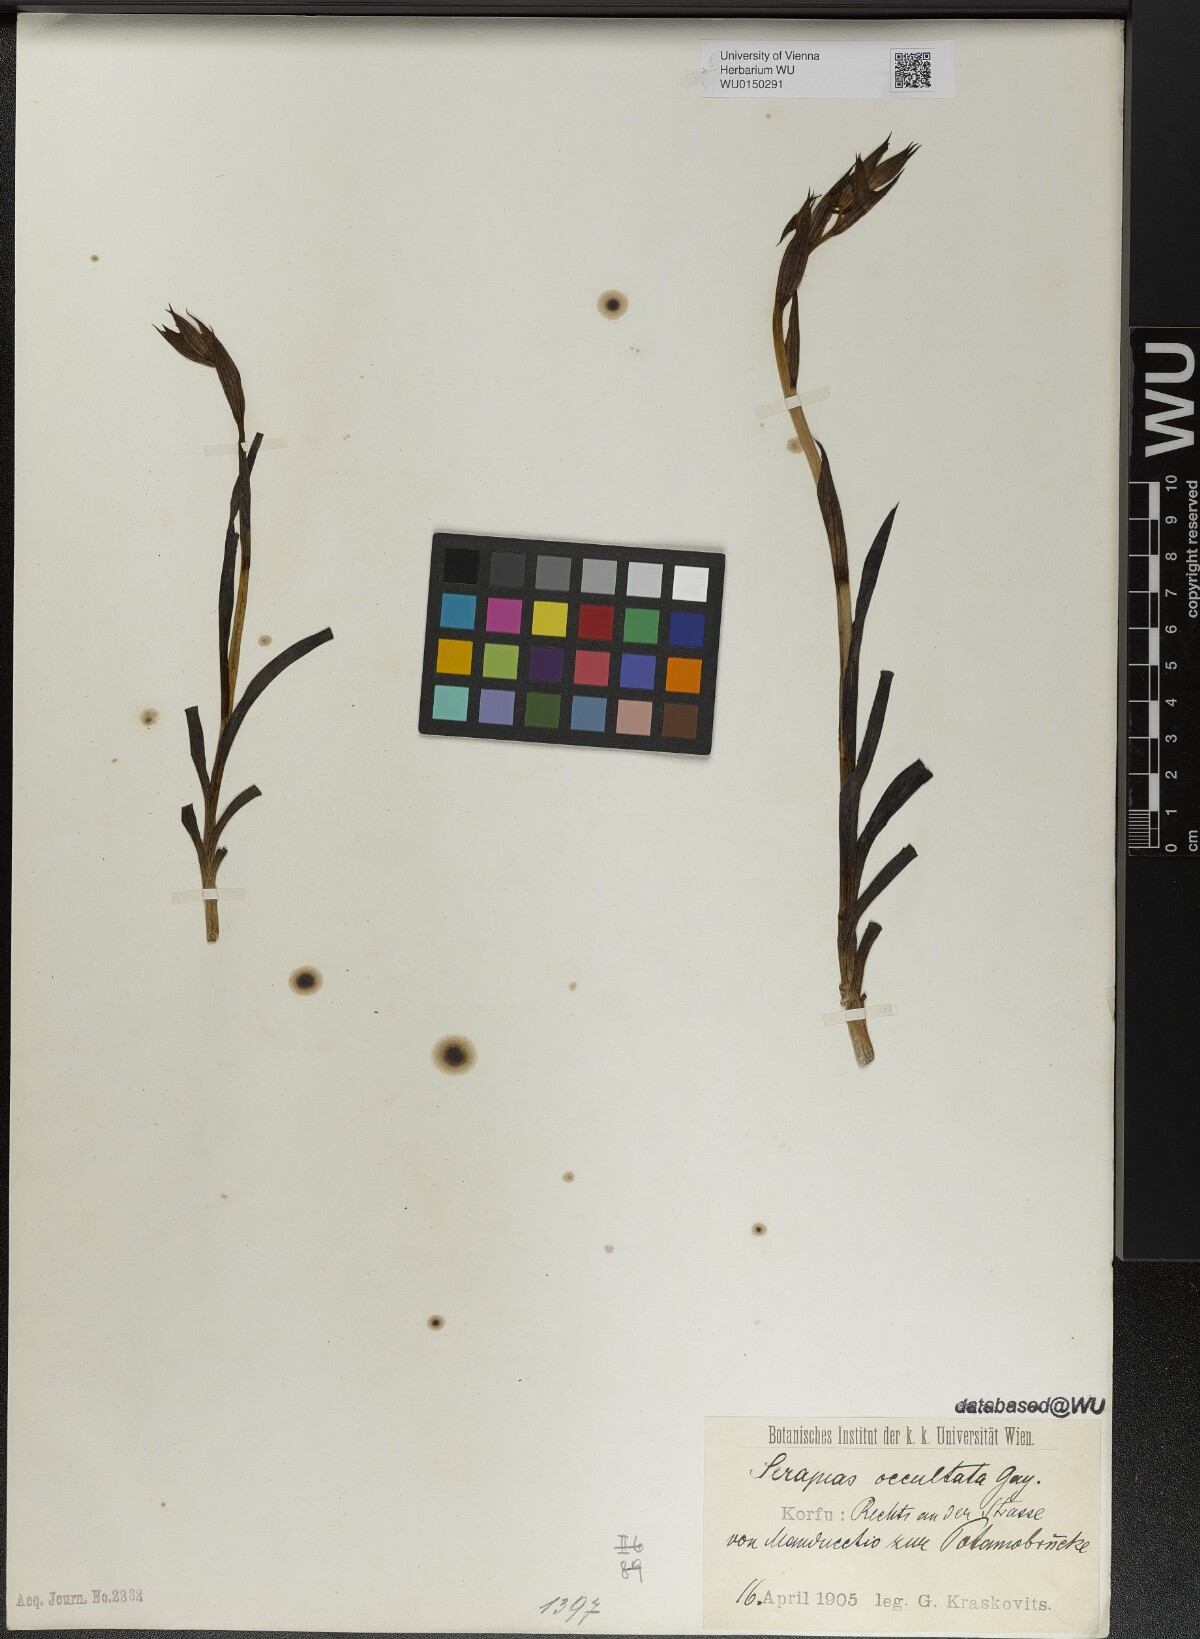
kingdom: Plantae
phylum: Tracheophyta
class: Liliopsida
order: Asparagales
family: Orchidaceae
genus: Serapias
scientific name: Serapias parviflora
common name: Small-flowered tongue-orchid
